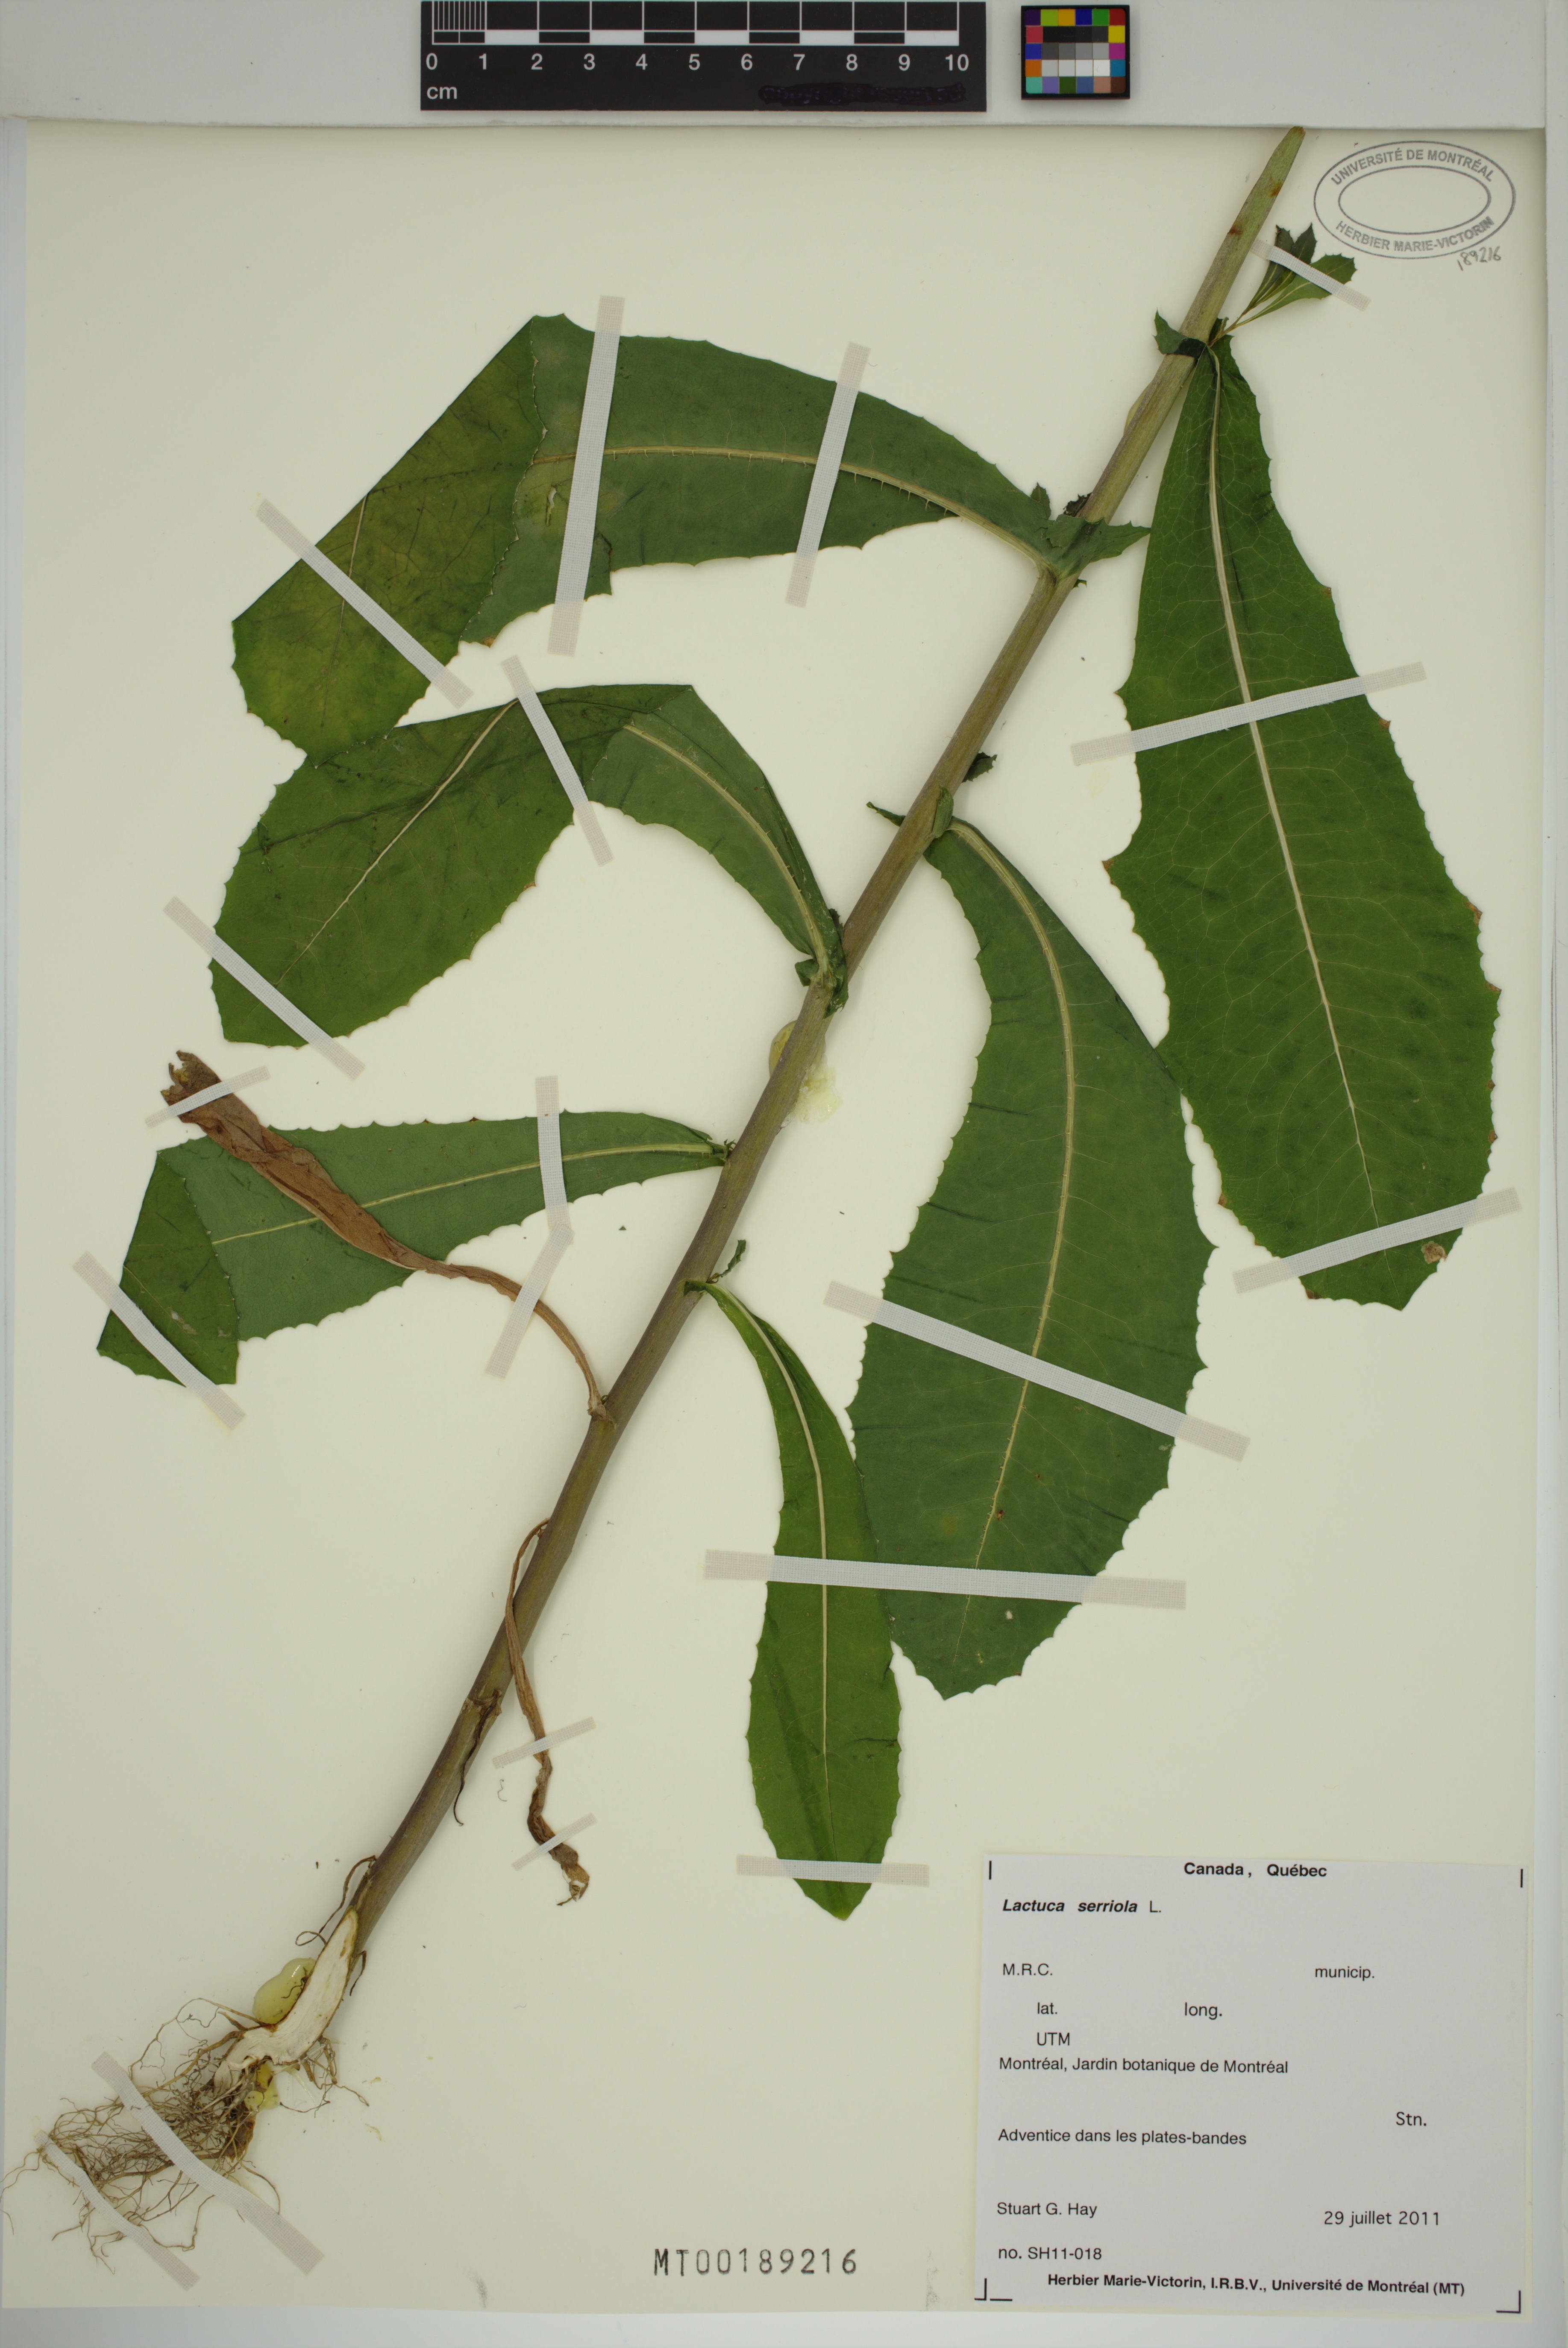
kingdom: Plantae
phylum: Tracheophyta
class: Magnoliopsida
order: Asterales
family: Asteraceae
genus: Lactuca
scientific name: Lactuca serriola
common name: Prickly lettuce
